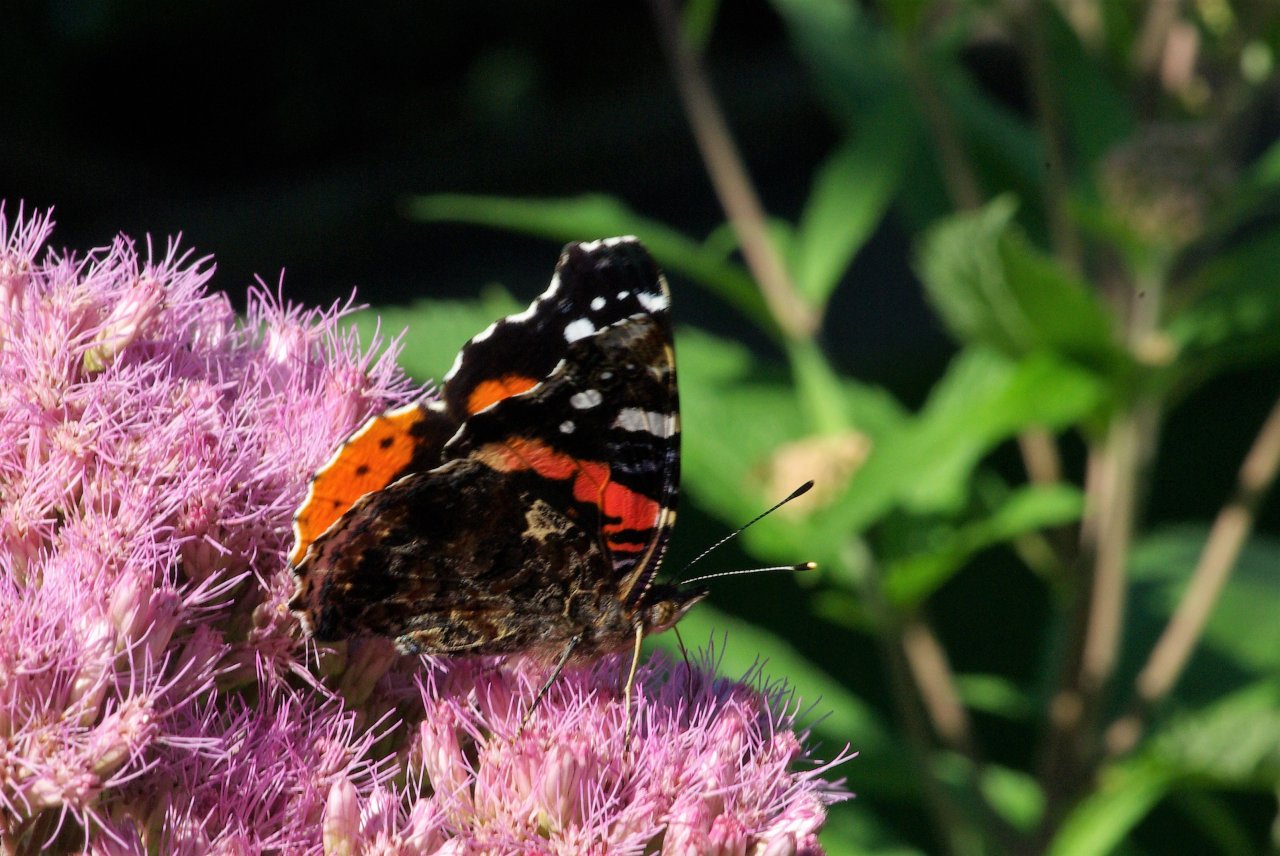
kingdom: Animalia
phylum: Arthropoda
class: Insecta
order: Lepidoptera
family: Nymphalidae
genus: Vanessa
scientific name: Vanessa atalanta
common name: Red Admiral
